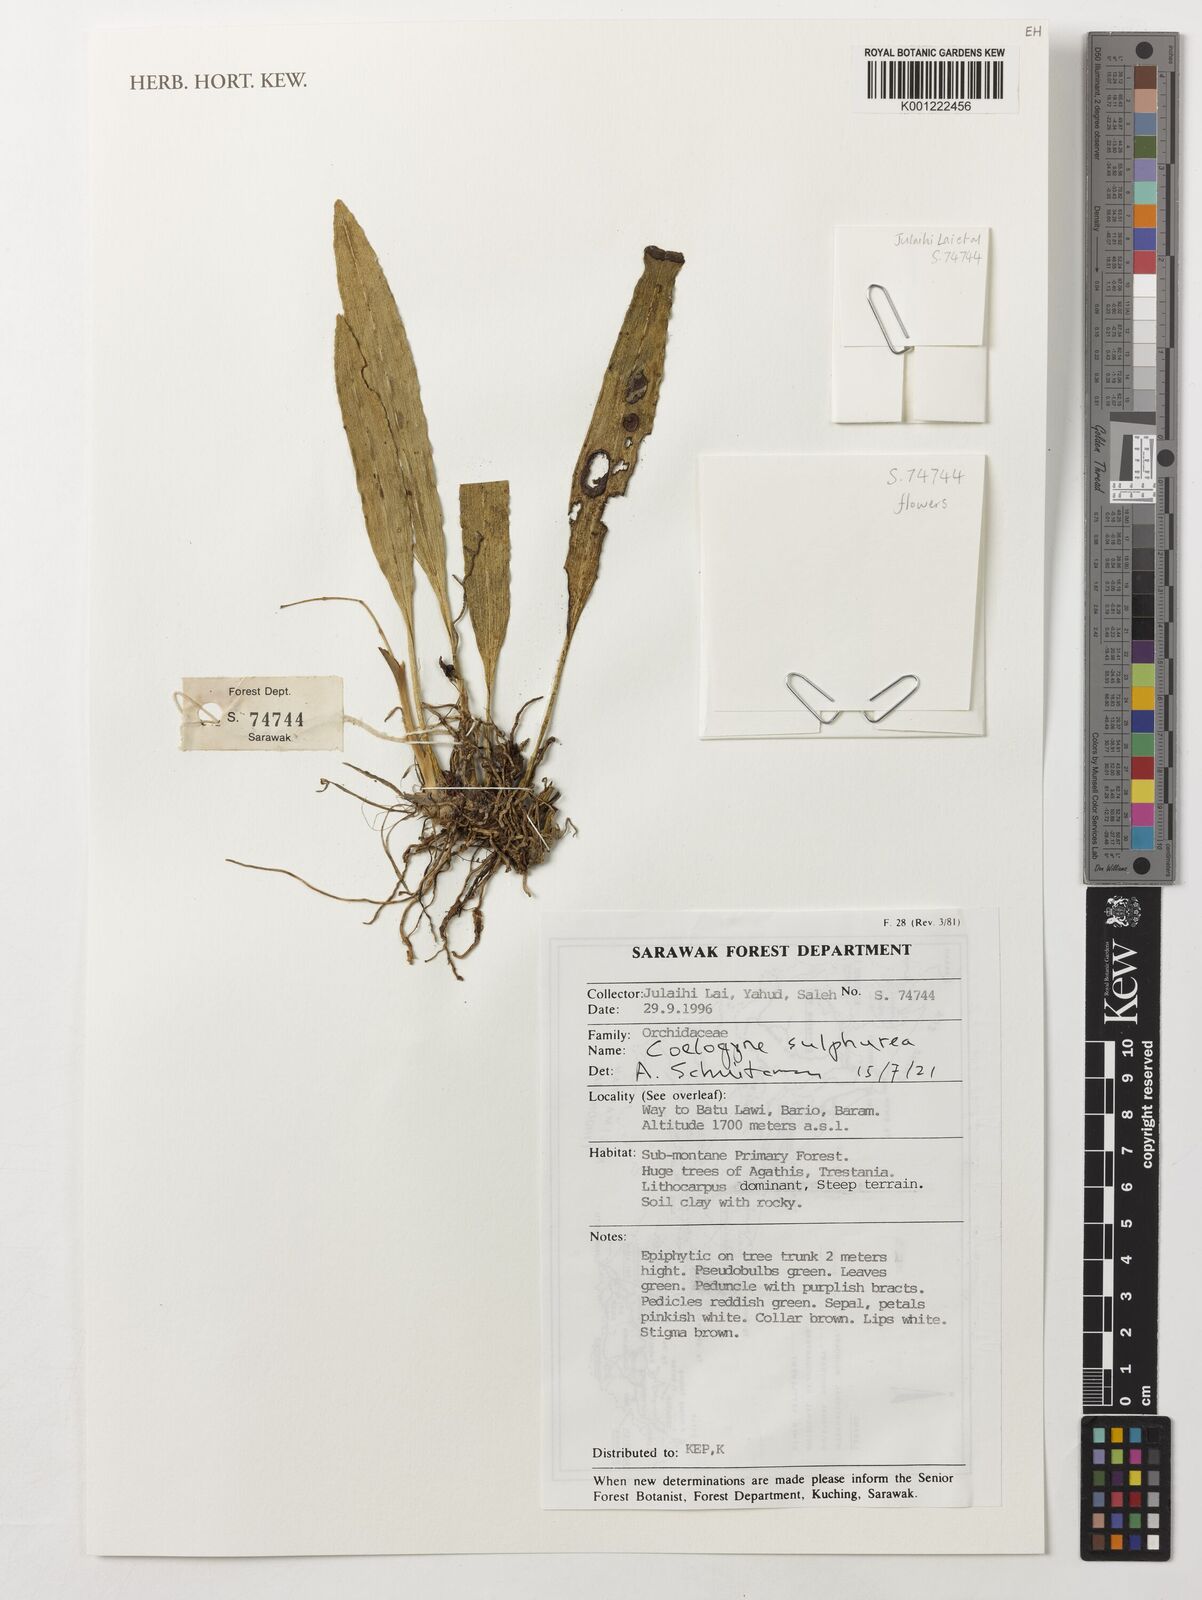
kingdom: Plantae
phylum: Tracheophyta
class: Liliopsida
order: Asparagales
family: Orchidaceae
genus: Coelogyne
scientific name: Coelogyne sulphurea
